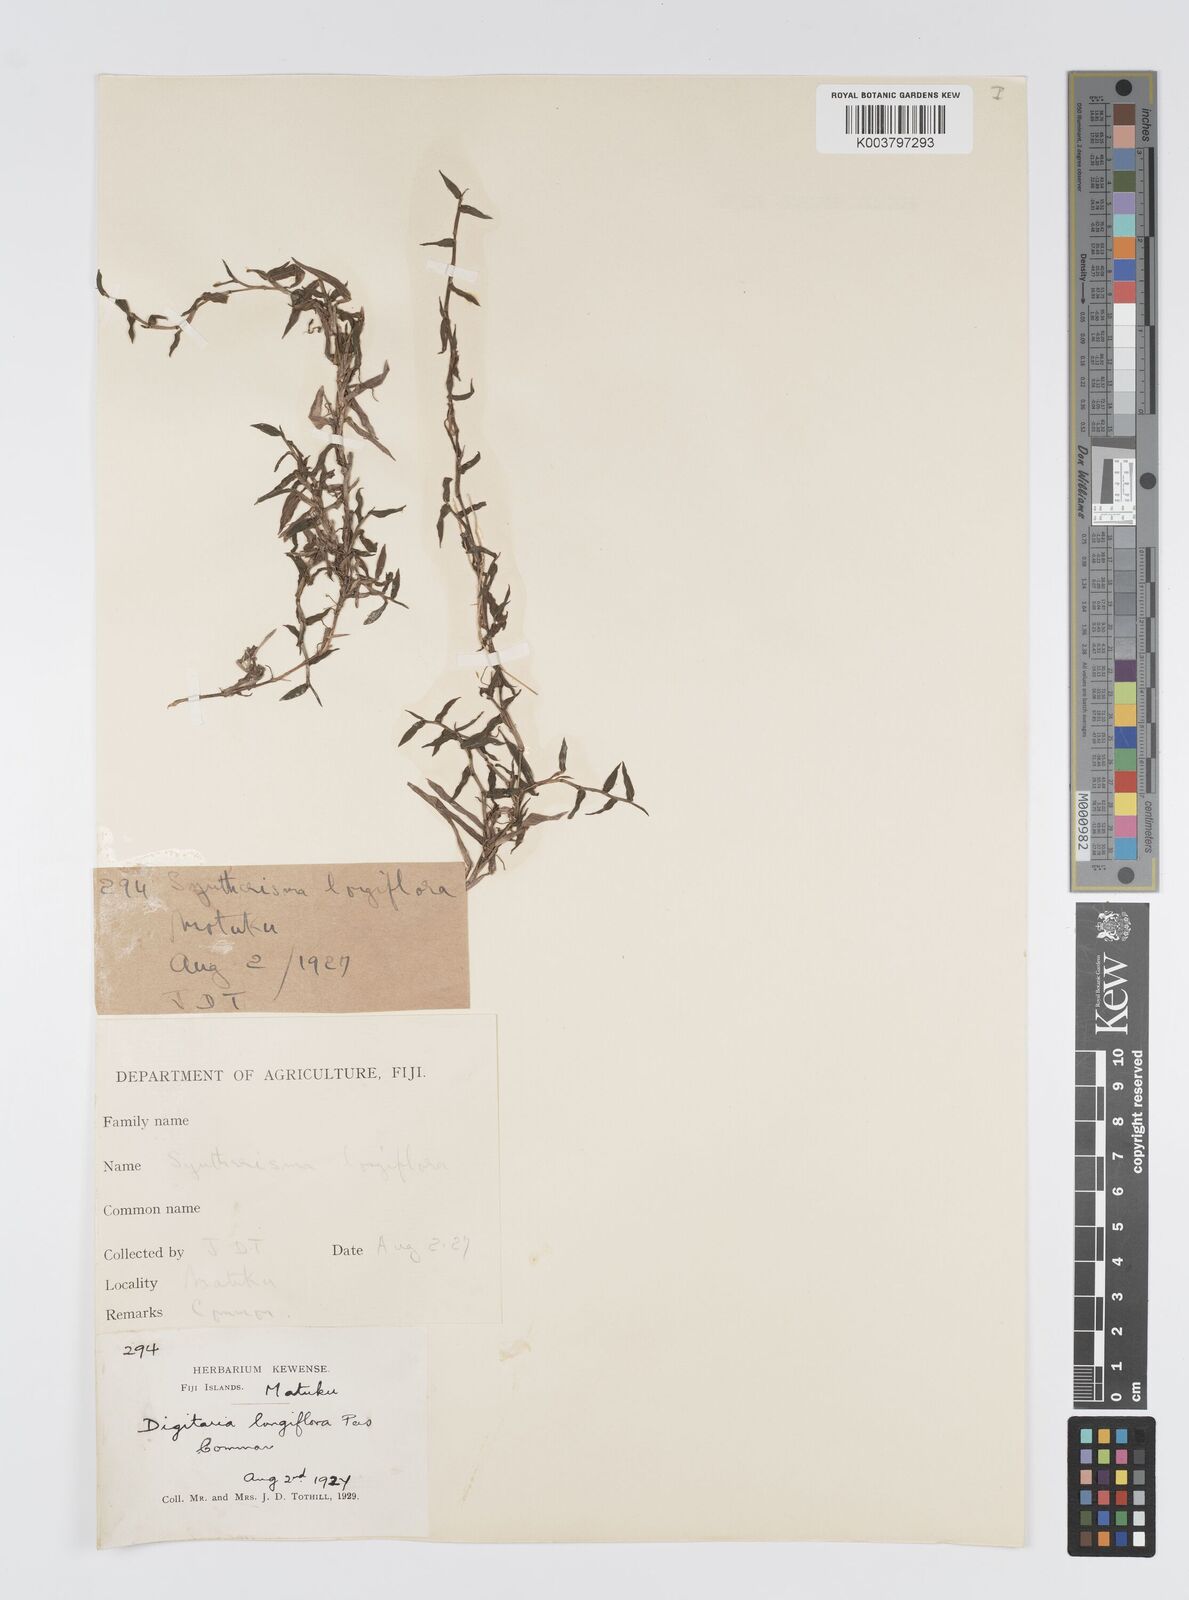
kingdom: Plantae
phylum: Tracheophyta
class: Liliopsida
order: Poales
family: Poaceae
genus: Digitaria
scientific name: Digitaria fuscescens
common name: Yellow crabgrass
